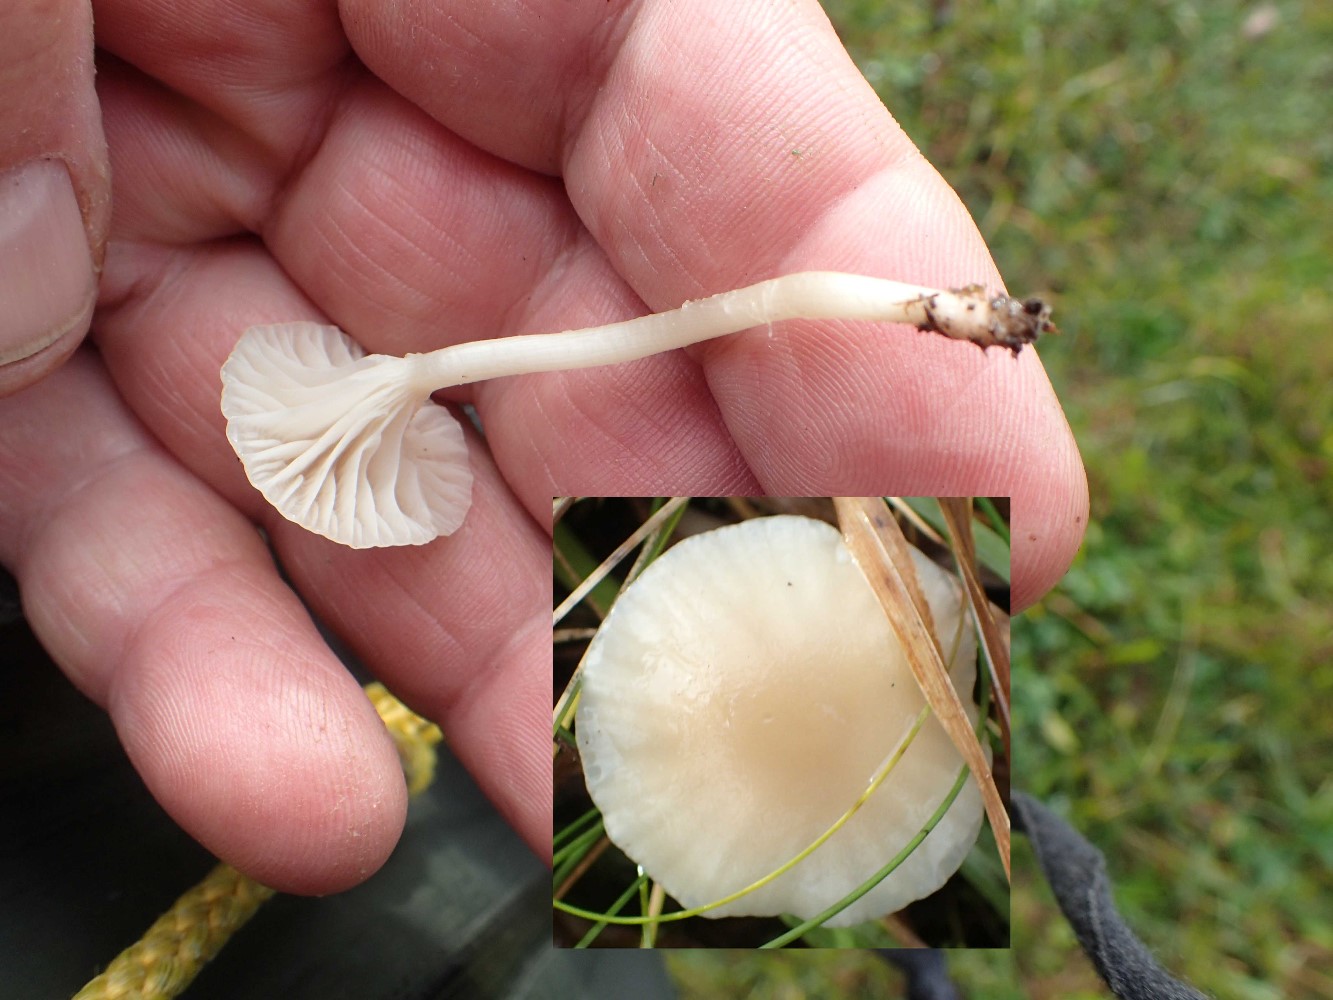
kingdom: Fungi
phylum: Basidiomycota
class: Agaricomycetes
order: Agaricales
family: Hygrophoraceae
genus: Cuphophyllus
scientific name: Cuphophyllus russocoriaceus
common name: ruslæder-vokshat
